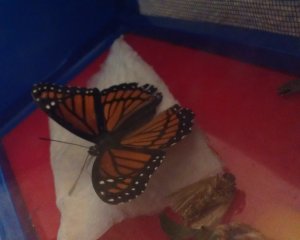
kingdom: Animalia
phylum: Arthropoda
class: Insecta
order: Lepidoptera
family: Nymphalidae
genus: Limenitis
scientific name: Limenitis archippus
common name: Viceroy
